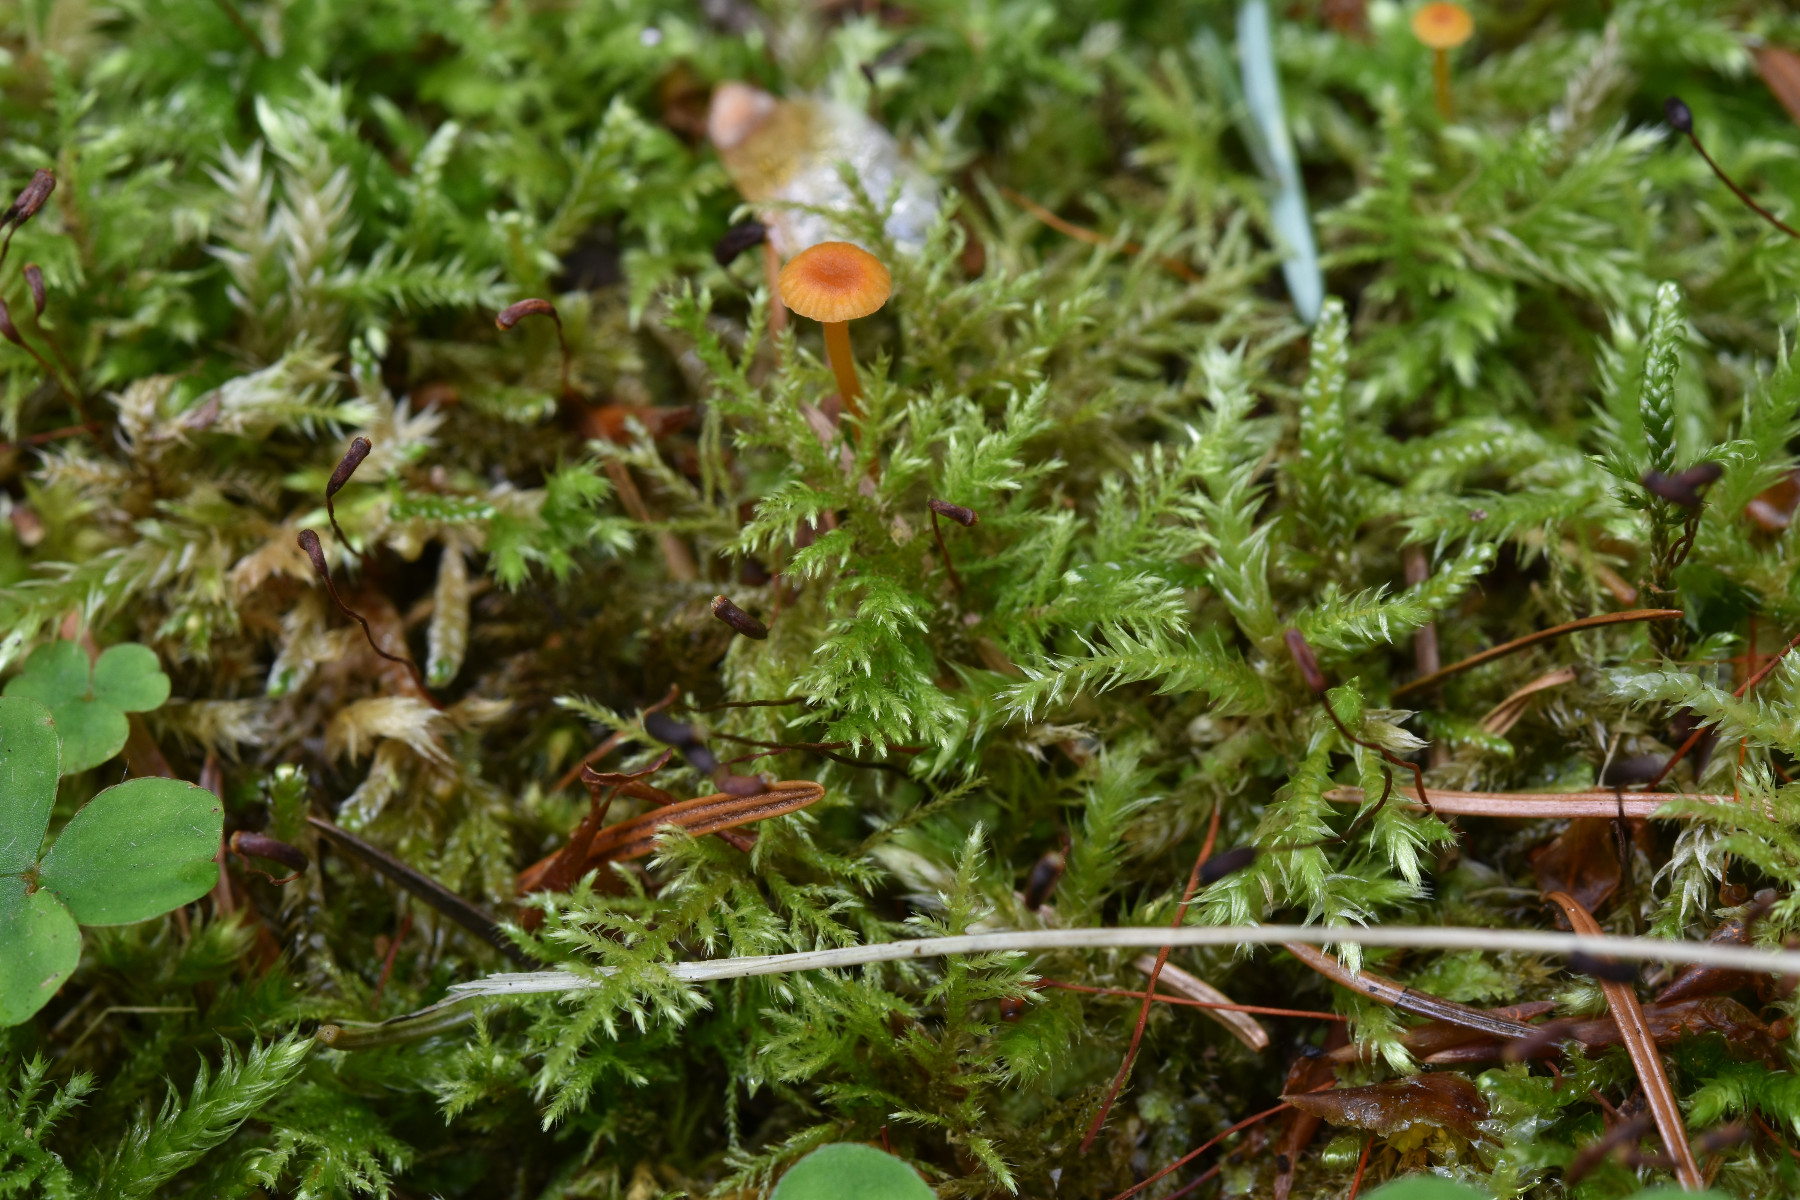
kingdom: Fungi
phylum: Basidiomycota
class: Agaricomycetes
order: Hymenochaetales
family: Rickenellaceae
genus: Rickenella
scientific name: Rickenella fibula
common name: orange mosnavlehat
